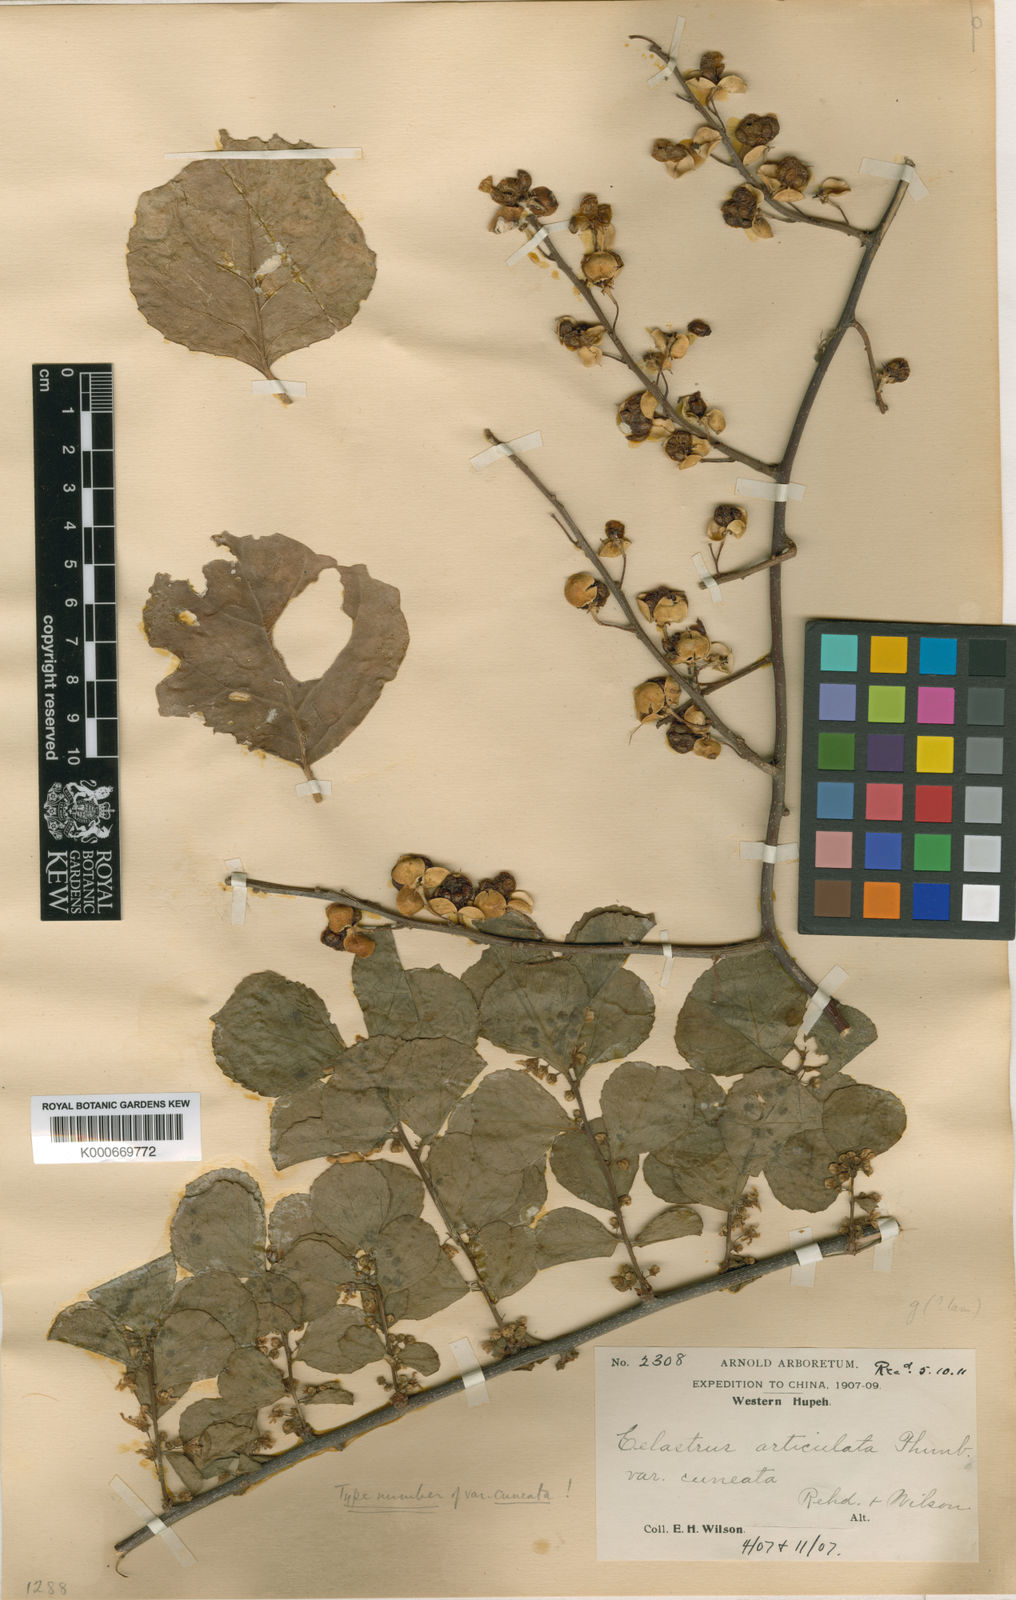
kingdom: Plantae
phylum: Tracheophyta
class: Magnoliopsida
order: Celastrales
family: Celastraceae
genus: Celastrus
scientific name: Celastrus orbiculatus
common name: Oriental bittersweet
